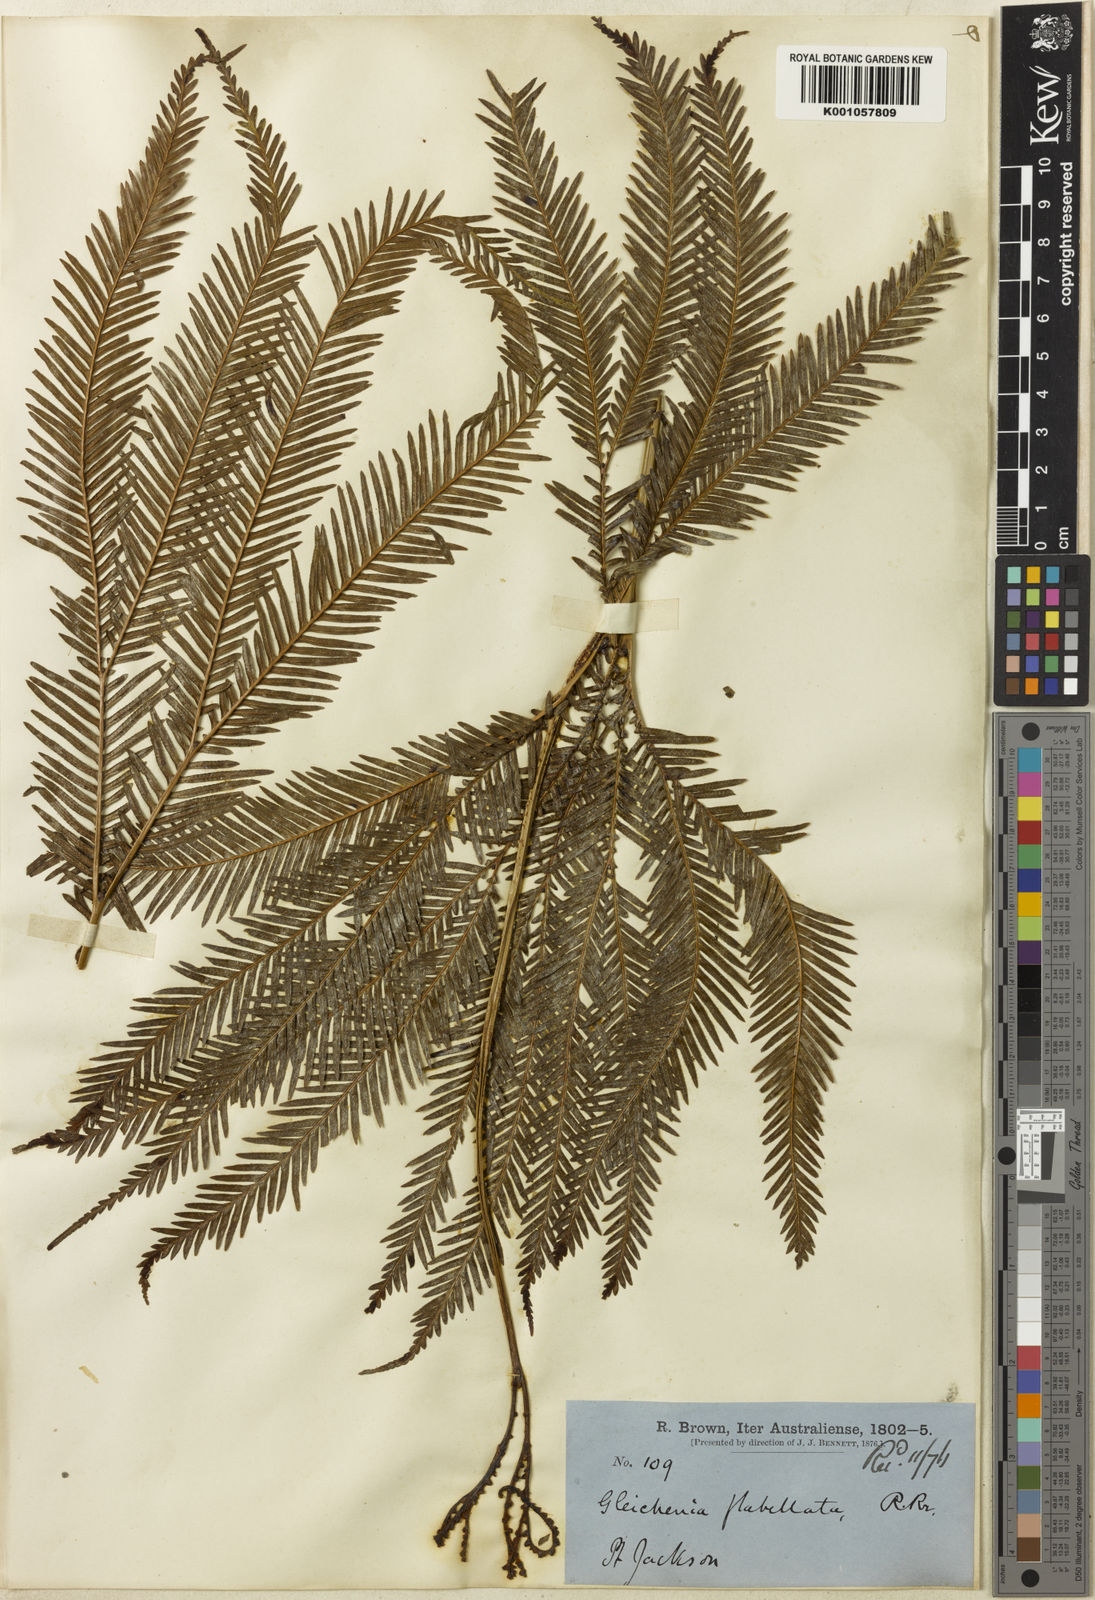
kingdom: Plantae
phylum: Tracheophyta
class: Polypodiopsida
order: Gleicheniales
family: Gleicheniaceae
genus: Sticherus
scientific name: Sticherus flabellatus
